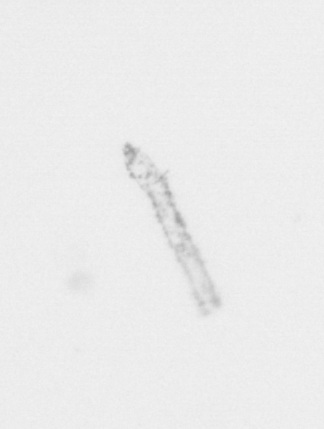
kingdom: Chromista
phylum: Ochrophyta
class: Bacillariophyceae
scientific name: Bacillariophyceae
